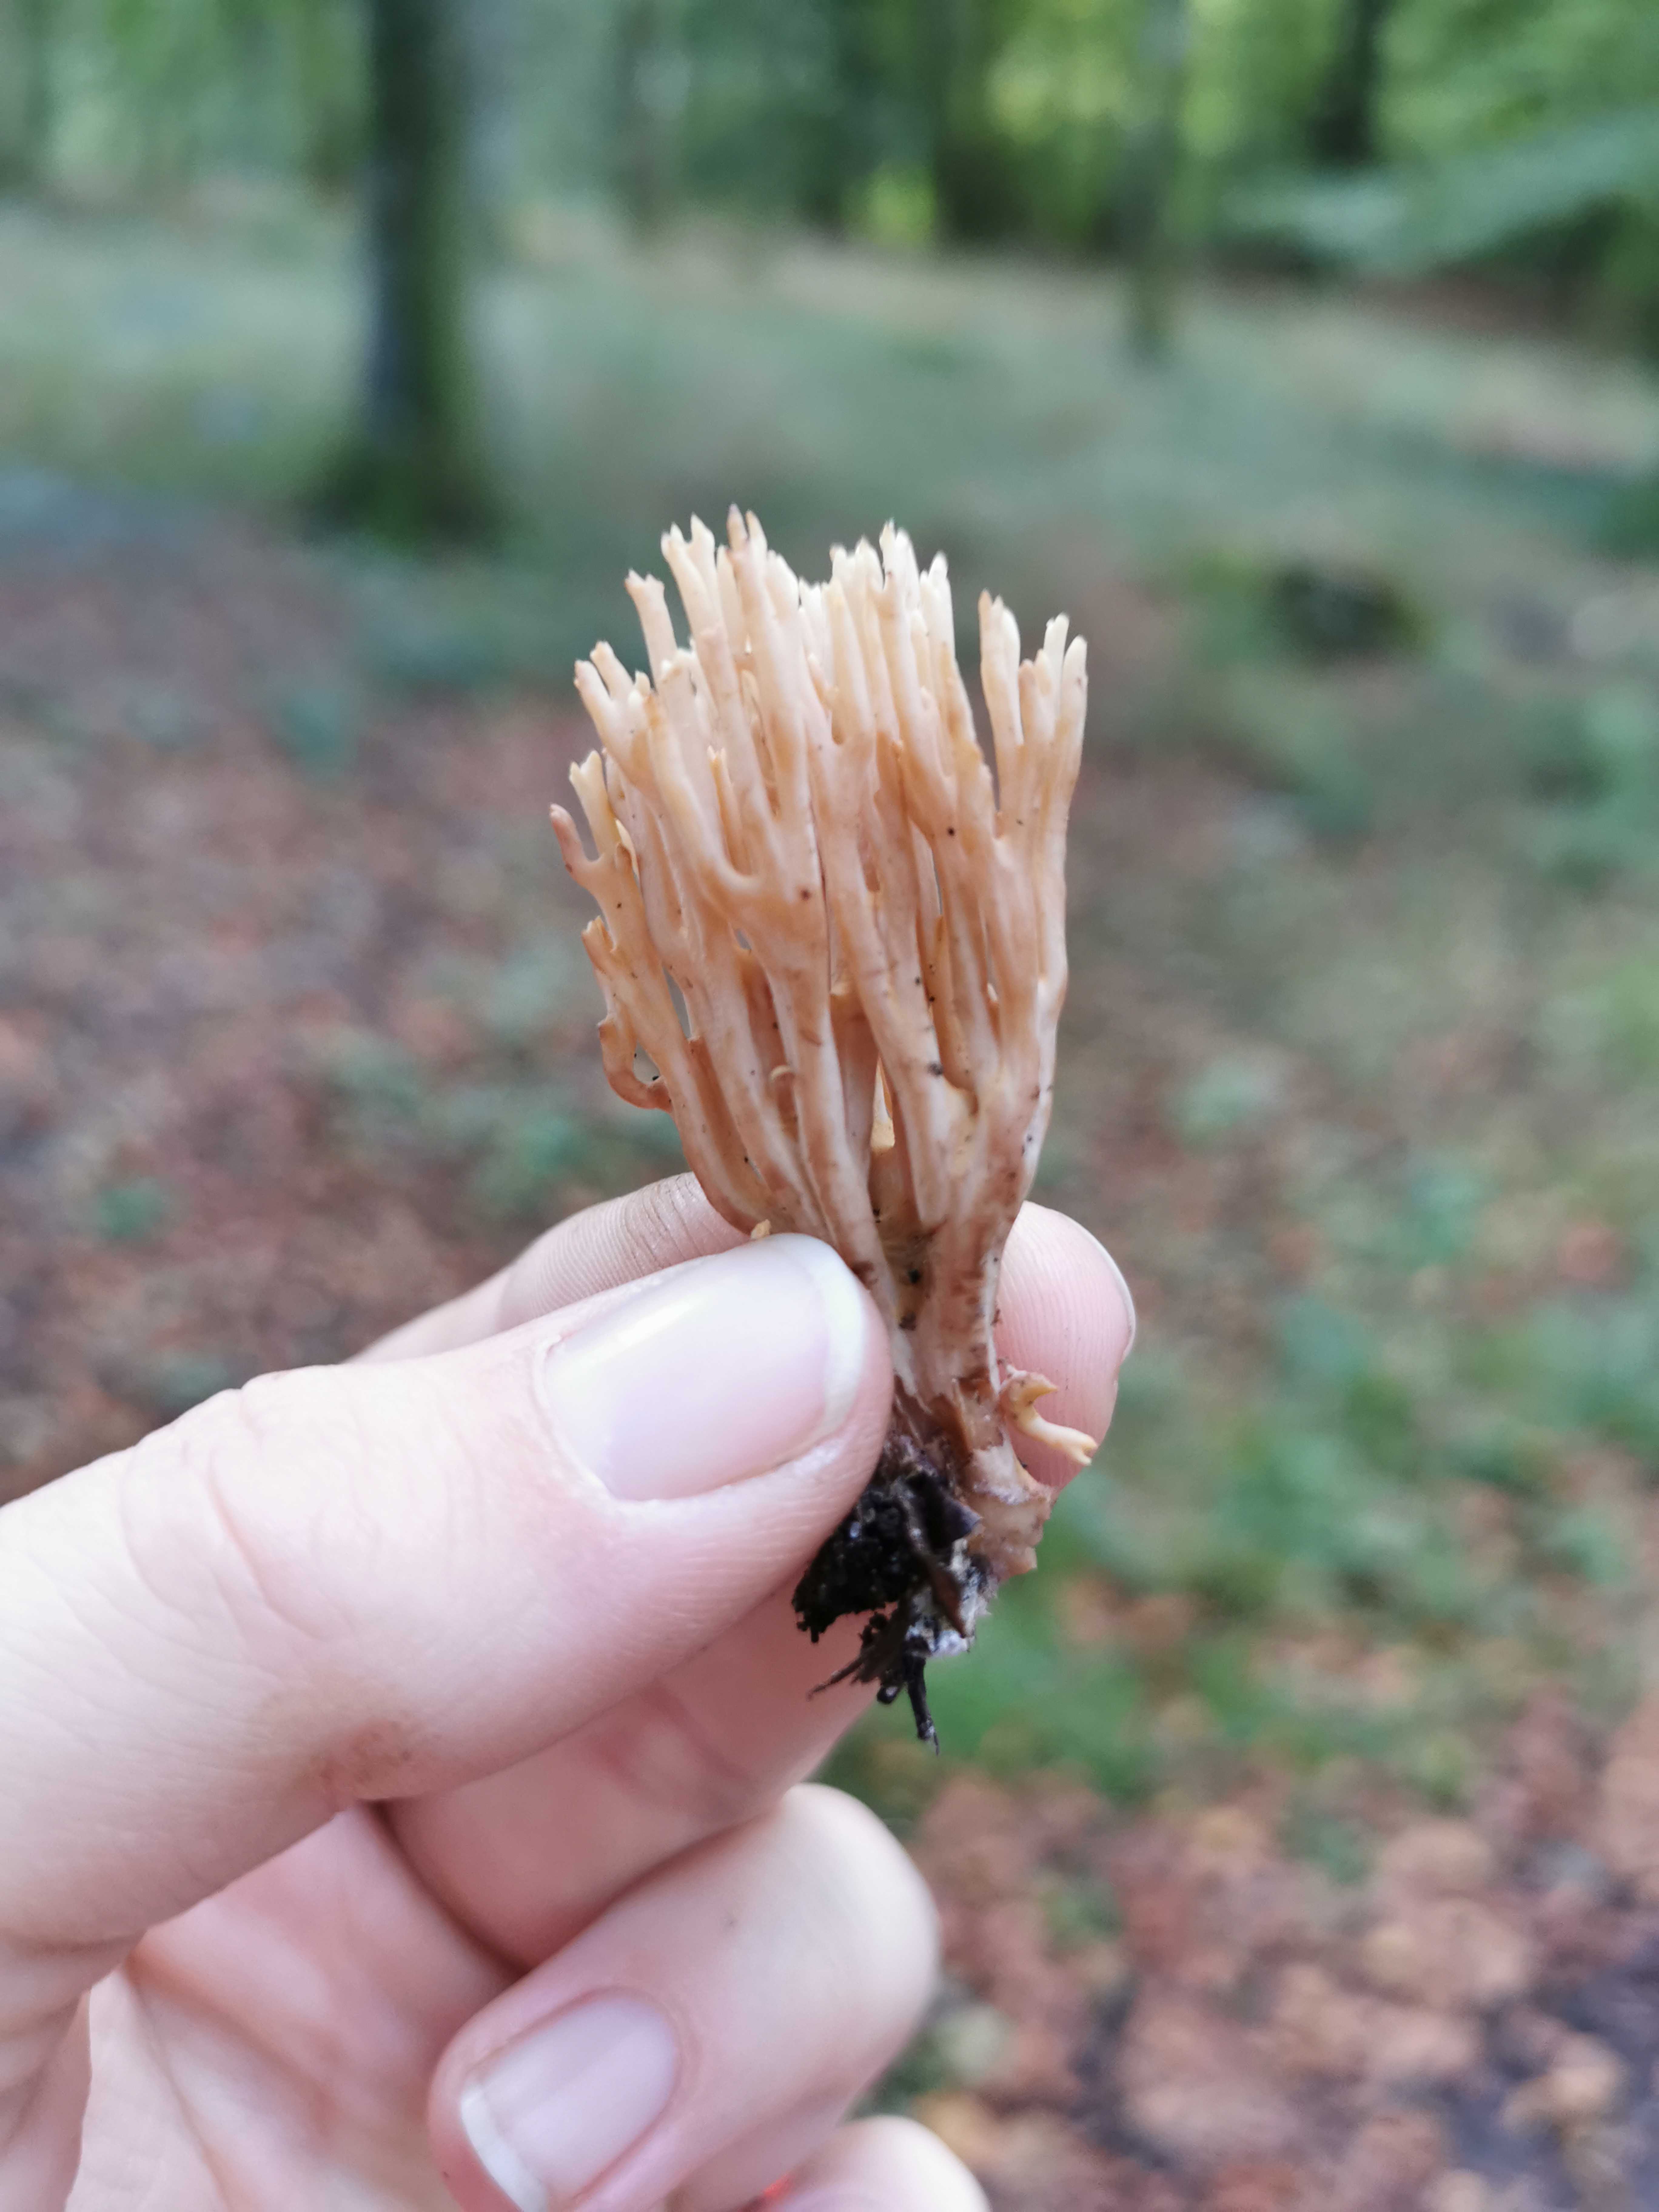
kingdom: Fungi
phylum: Basidiomycota
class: Agaricomycetes
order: Gomphales
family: Gomphaceae
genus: Ramaria
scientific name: Ramaria stricta
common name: rank koralsvamp
